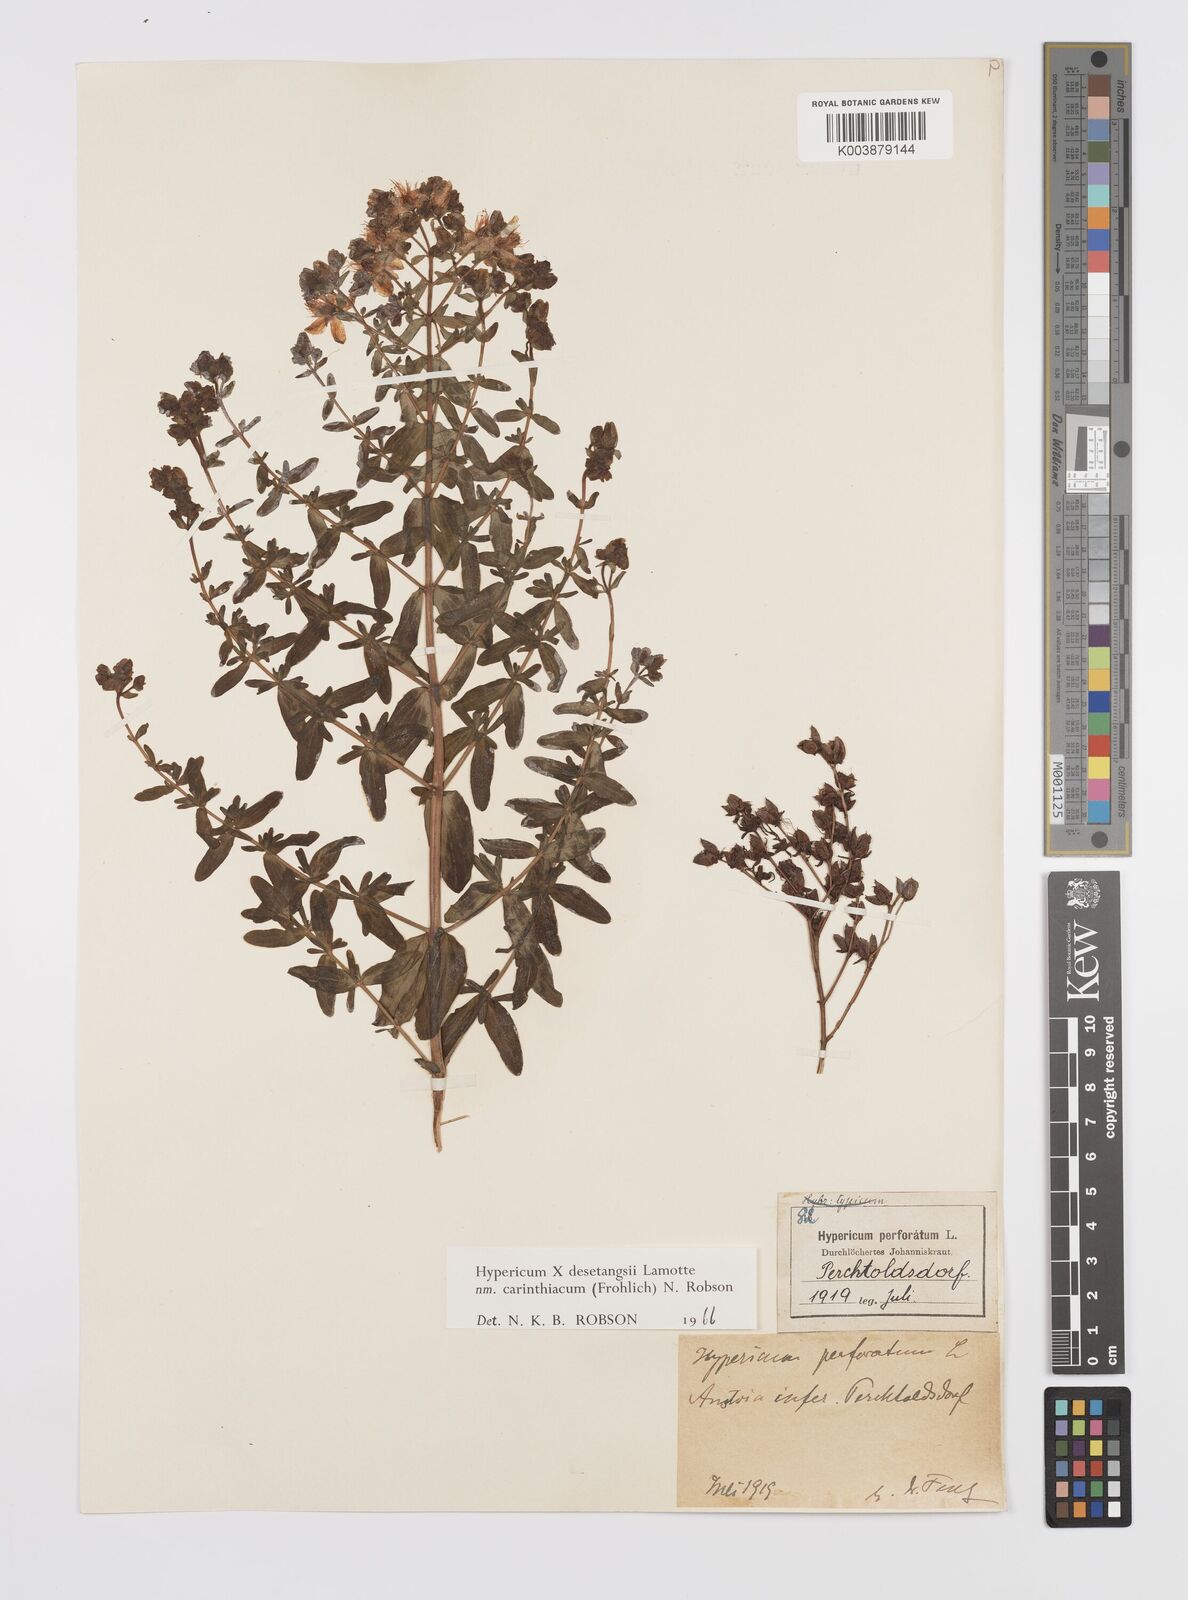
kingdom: Plantae
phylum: Tracheophyta
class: Magnoliopsida
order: Malpighiales
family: Hypericaceae
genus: Hypericum
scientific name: Hypericum maculatum
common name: Imperforate st. john's-wort
